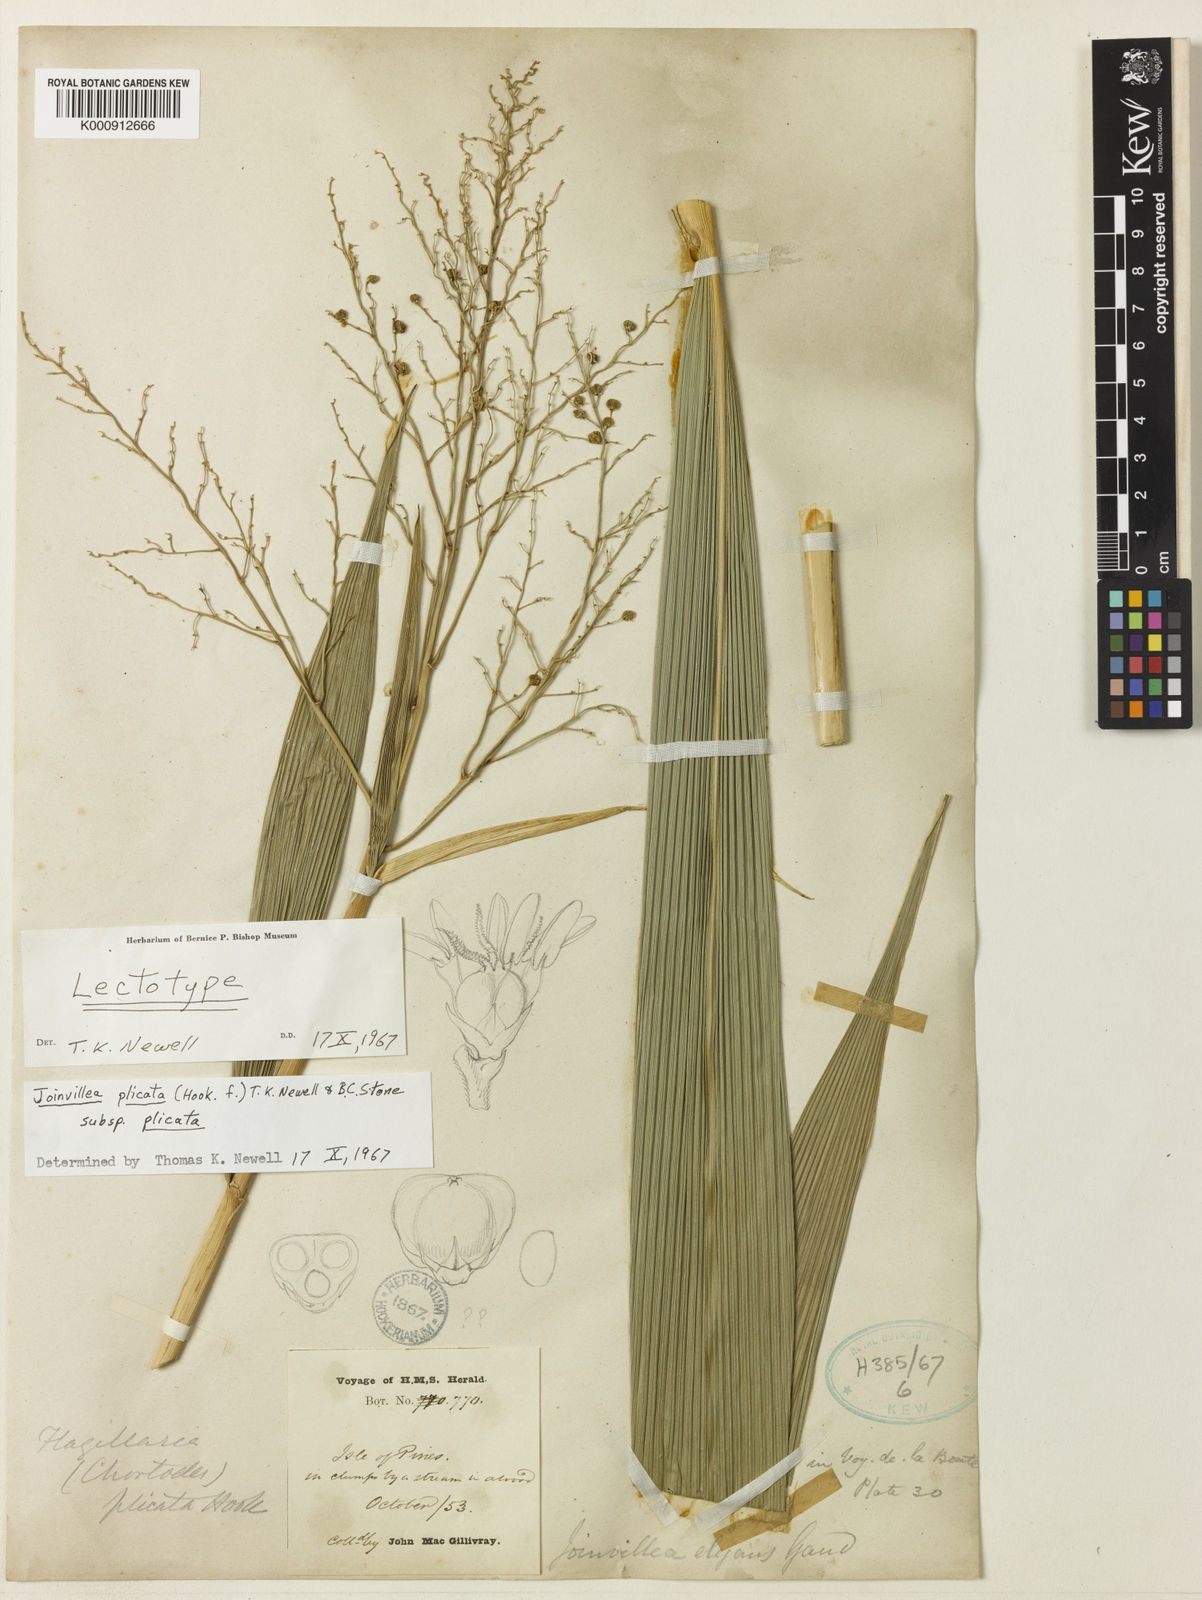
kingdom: Plantae
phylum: Tracheophyta
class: Liliopsida
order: Poales
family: Joinvilleaceae
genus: Joinvillea
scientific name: Joinvillea plicata
